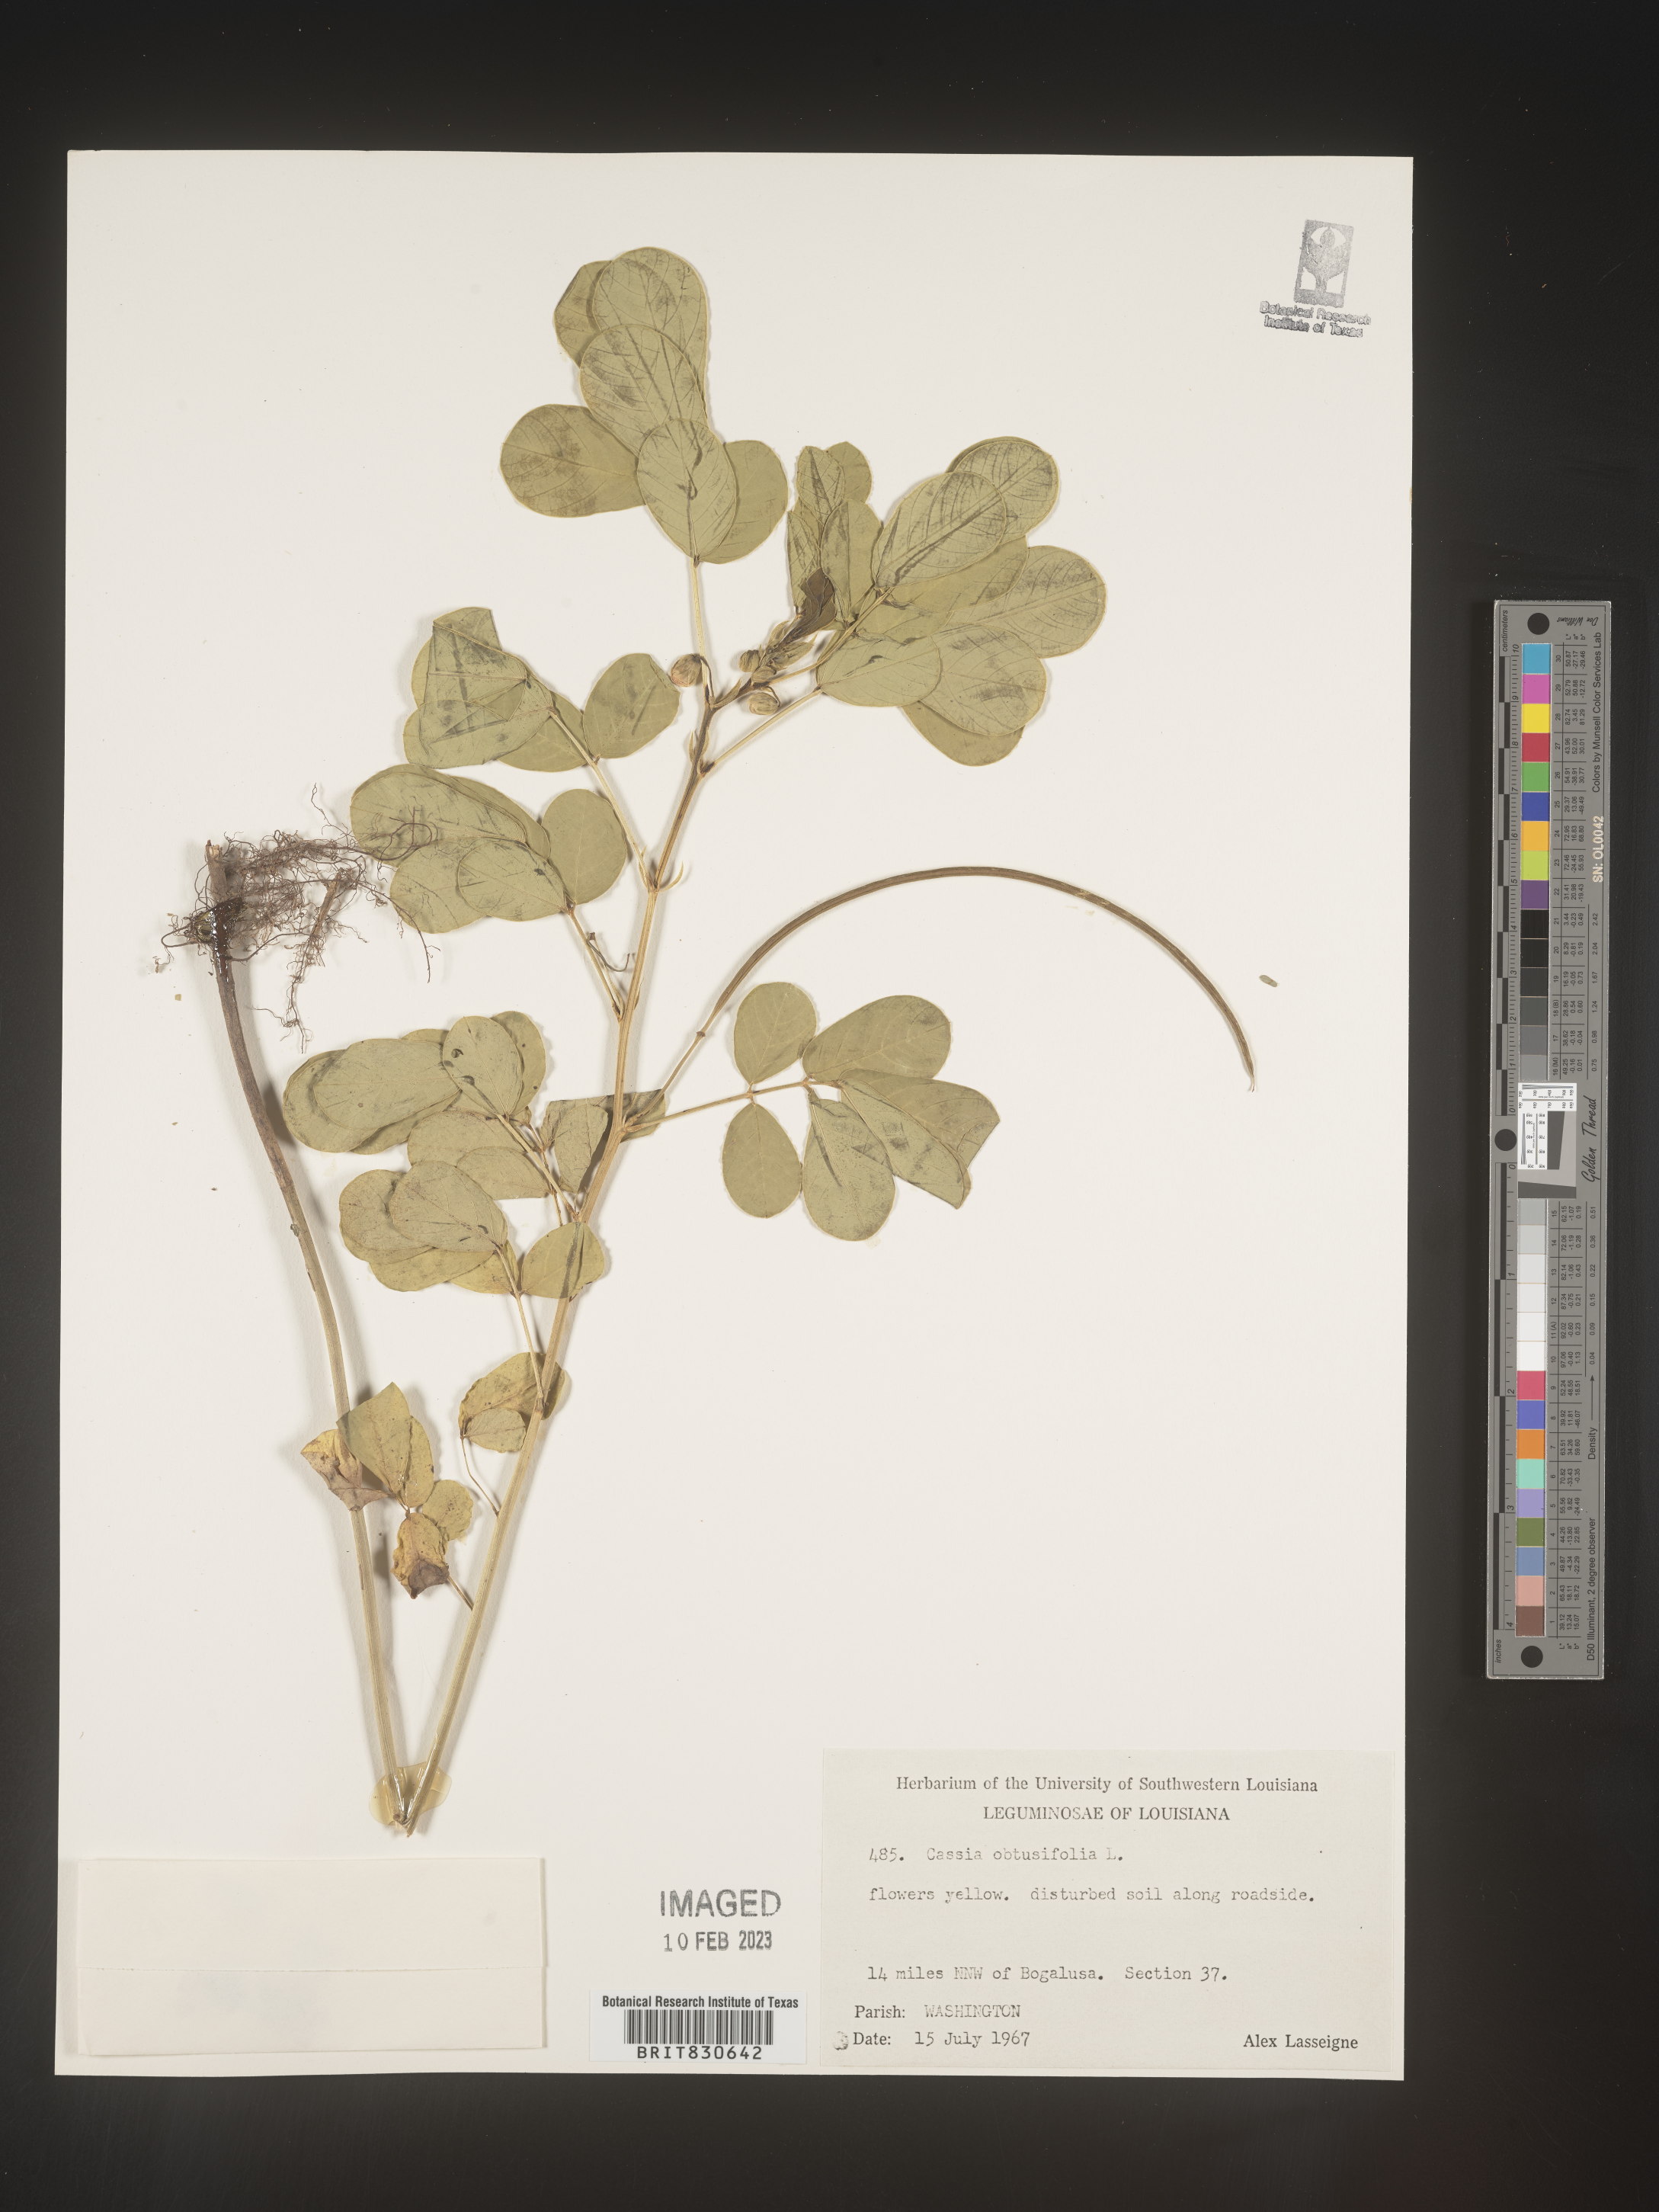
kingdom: Plantae
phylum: Tracheophyta
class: Magnoliopsida
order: Fabales
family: Fabaceae
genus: Senna
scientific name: Senna obtusifolia
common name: Java-bean
